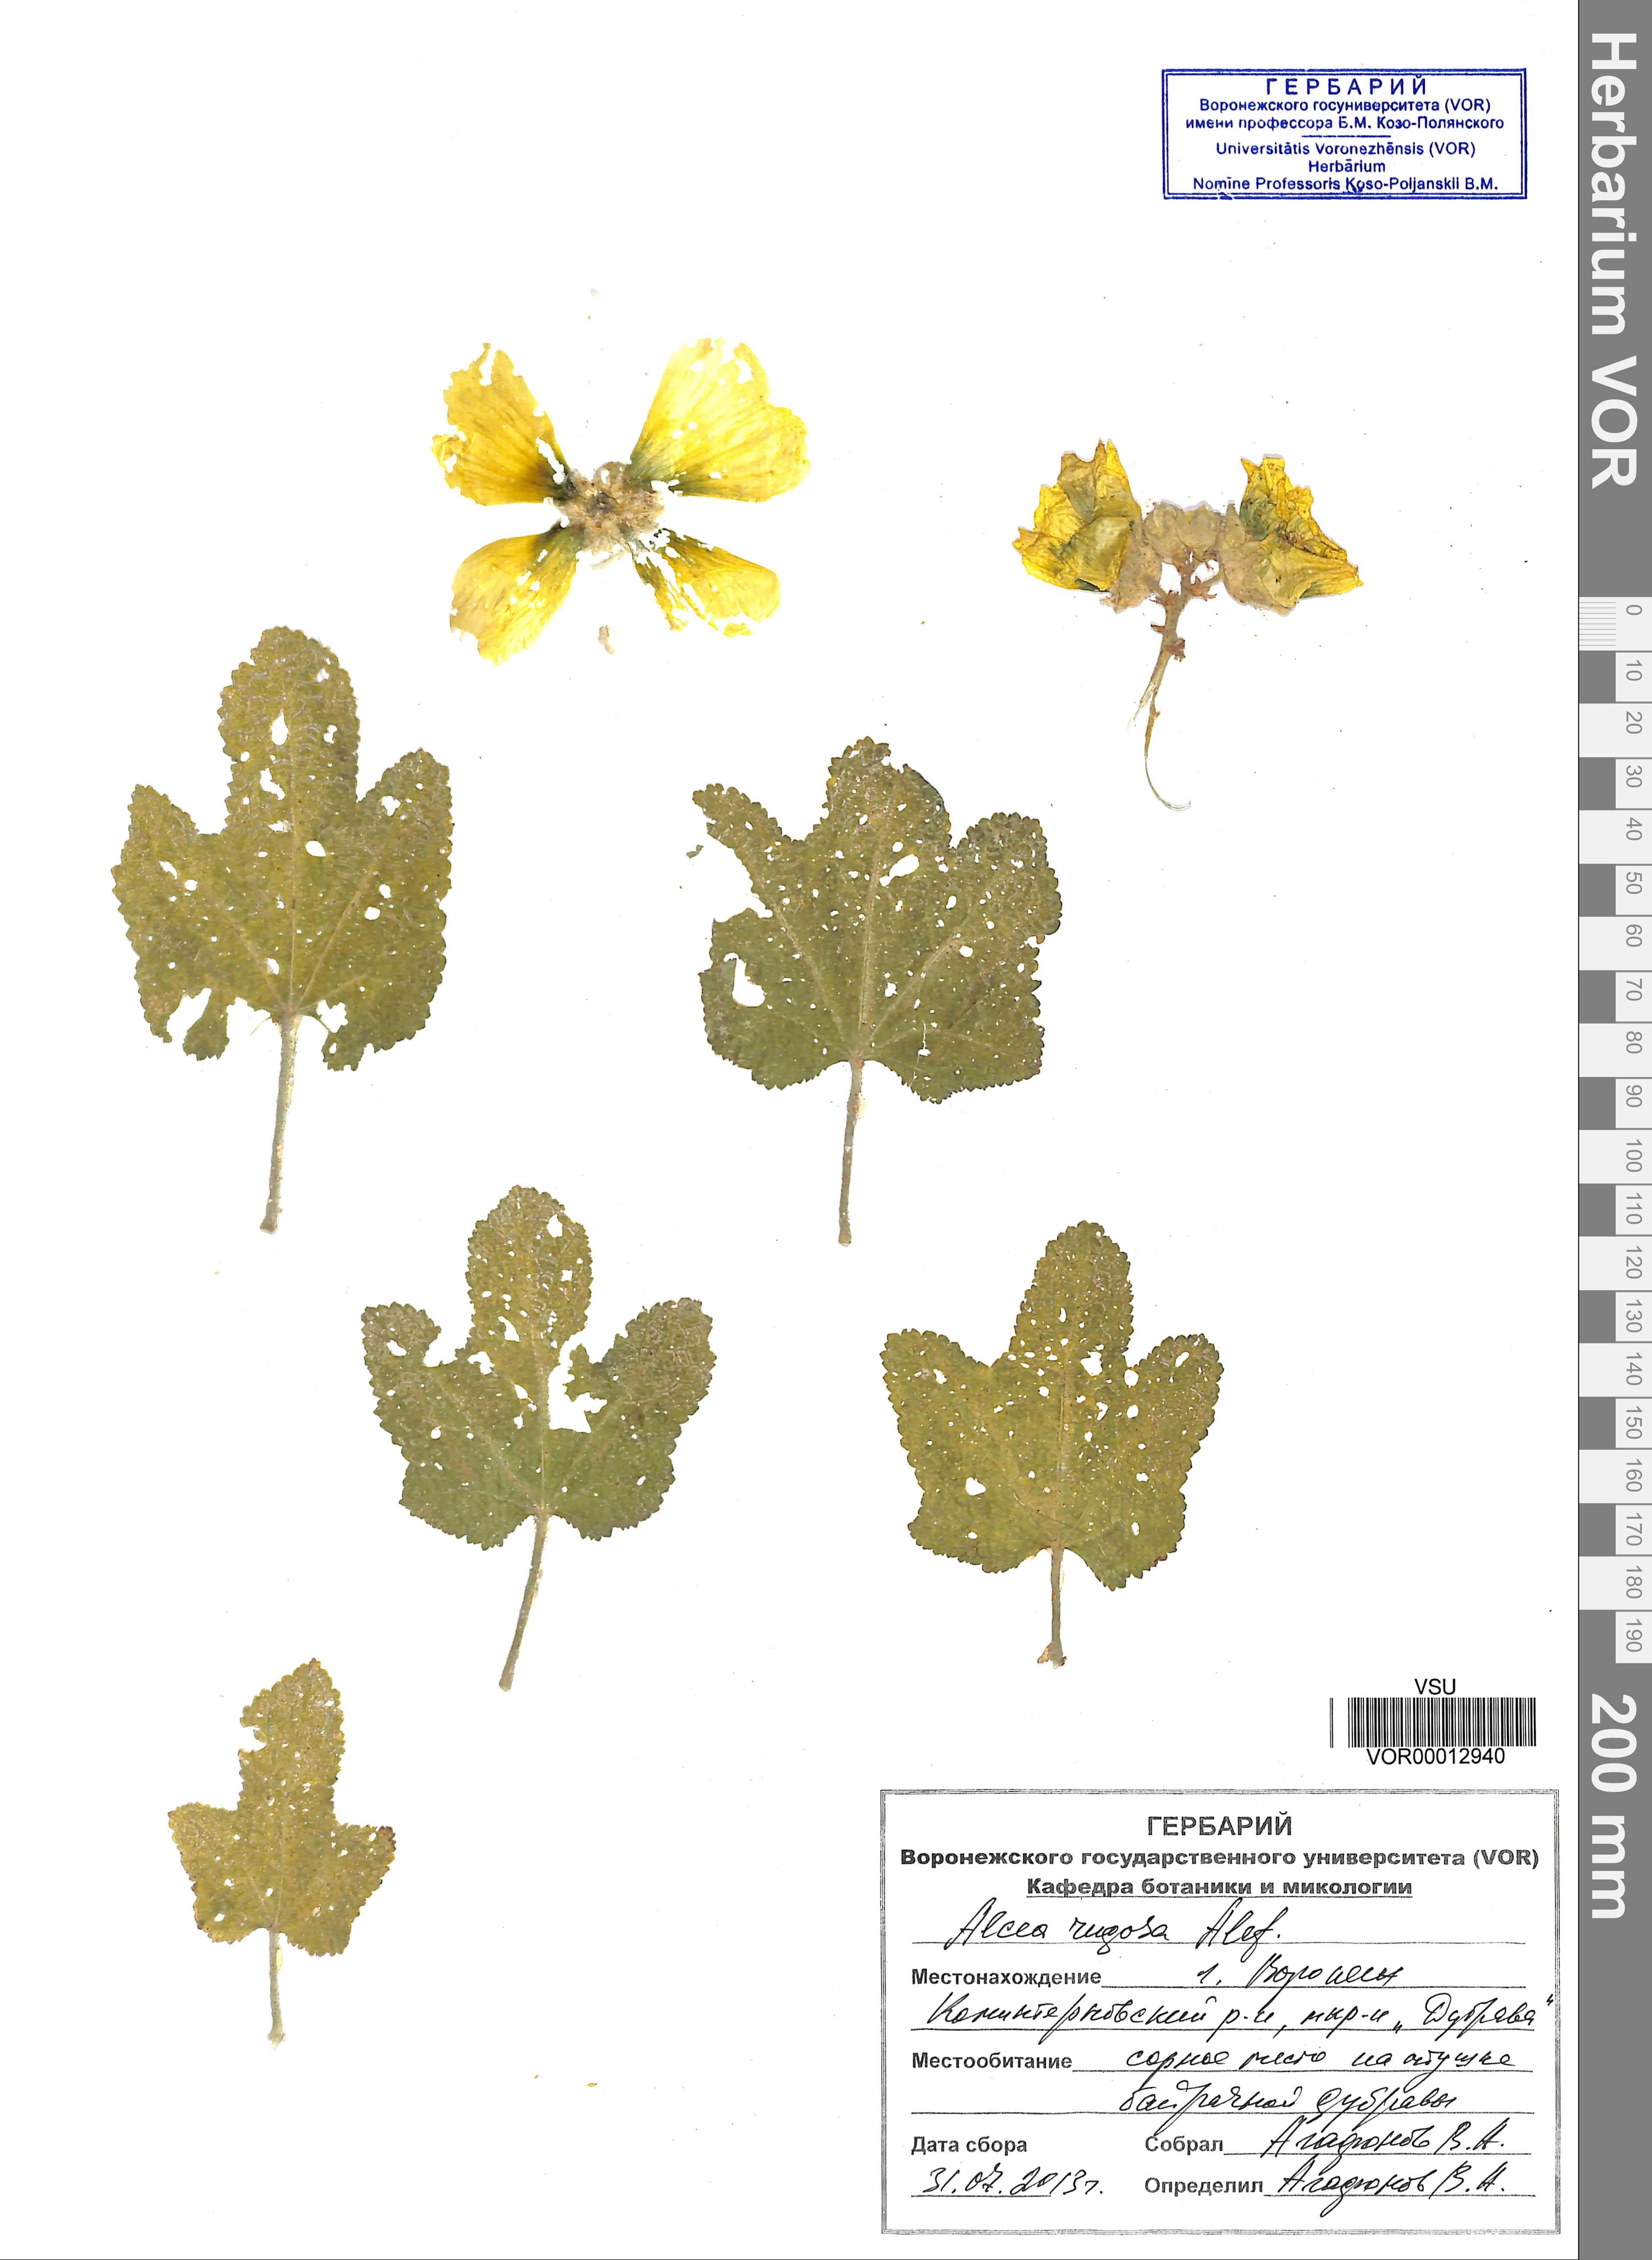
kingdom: Plantae
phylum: Tracheophyta
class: Magnoliopsida
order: Malvales
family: Malvaceae
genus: Alcea
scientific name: Alcea rugosa
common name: Russian hollyhock
